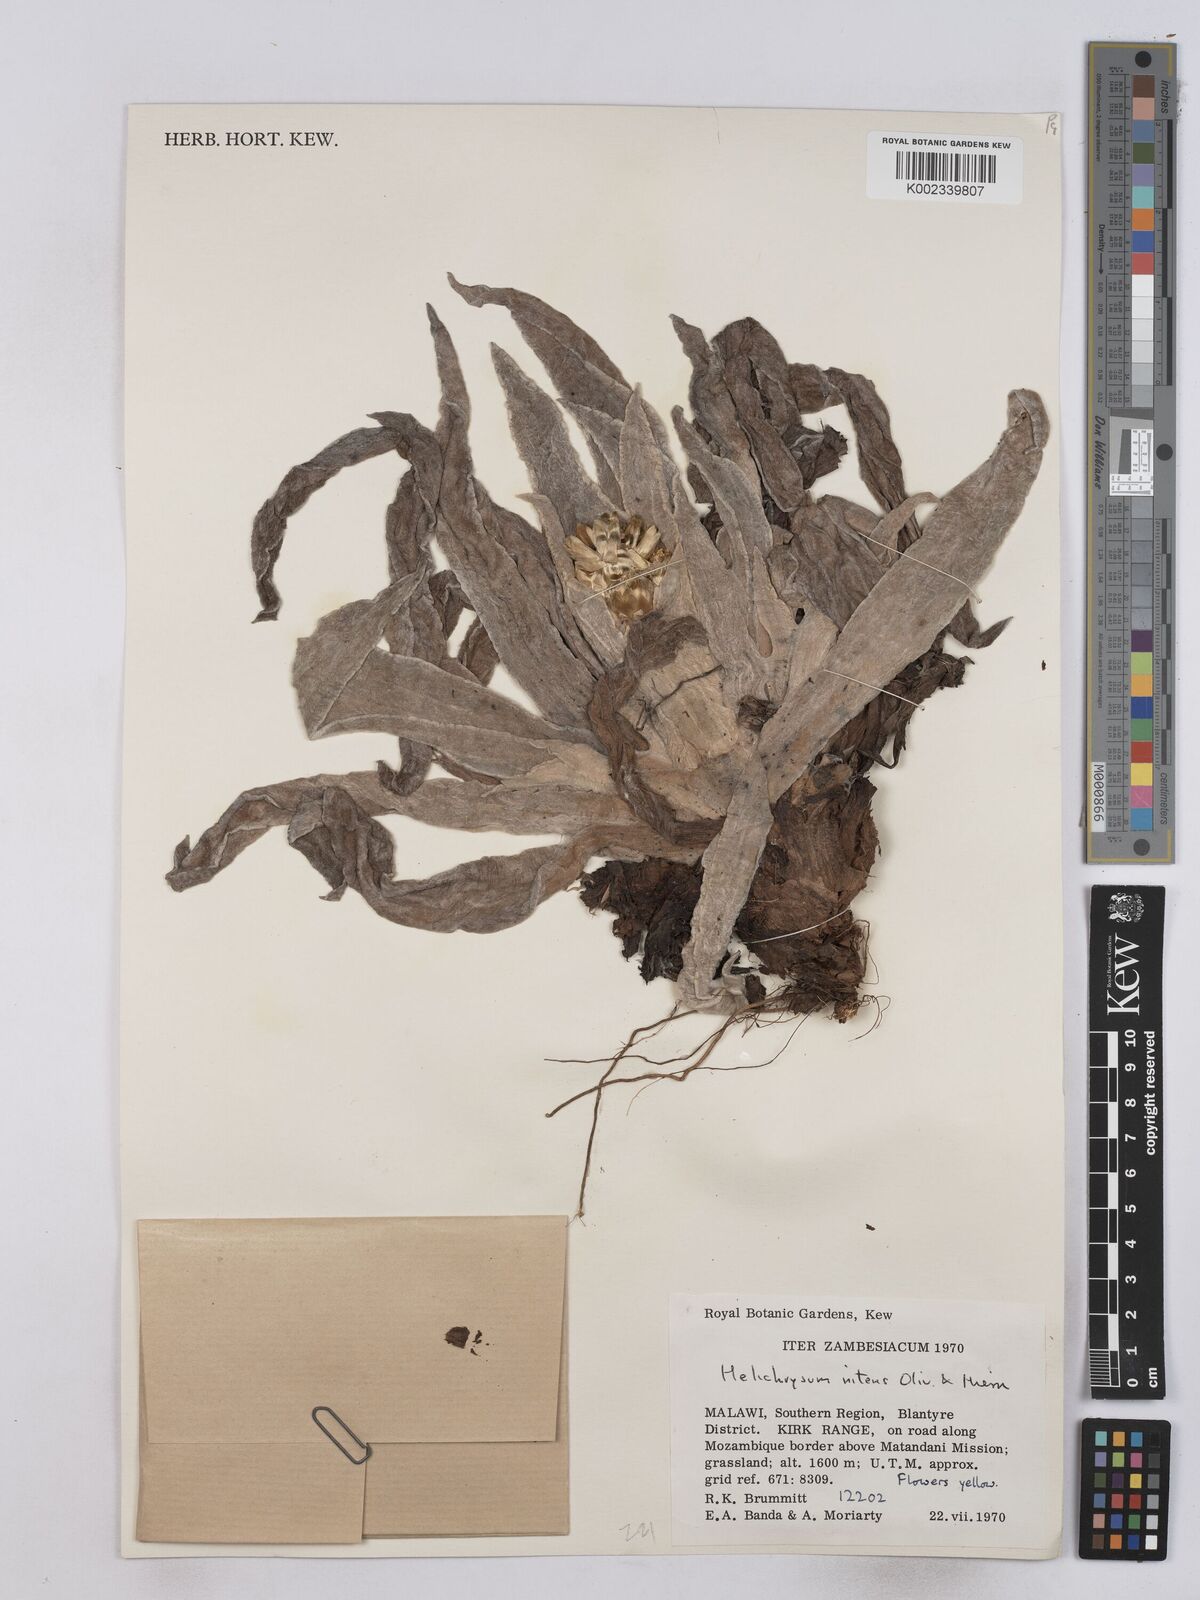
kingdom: Plantae
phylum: Tracheophyta
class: Magnoliopsida
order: Asterales
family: Asteraceae
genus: Helichrysum
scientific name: Helichrysum nitens
